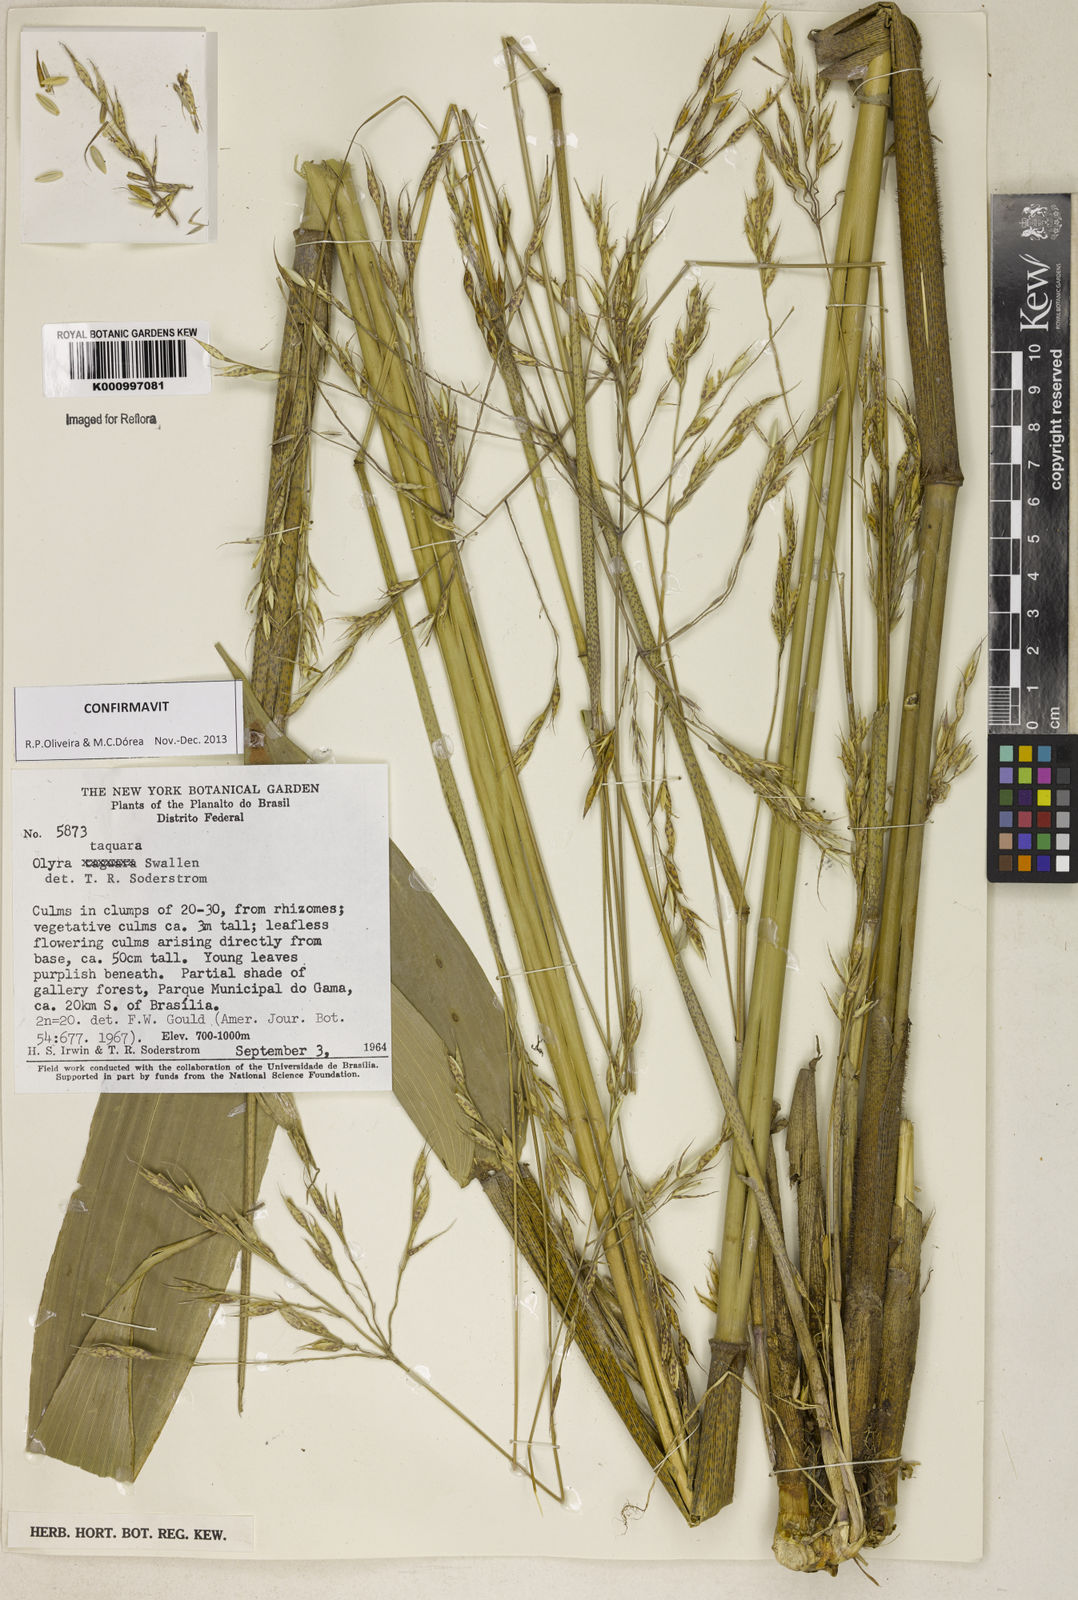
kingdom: Plantae
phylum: Tracheophyta
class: Liliopsida
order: Poales
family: Poaceae
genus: Olyra
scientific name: Olyra taquara
